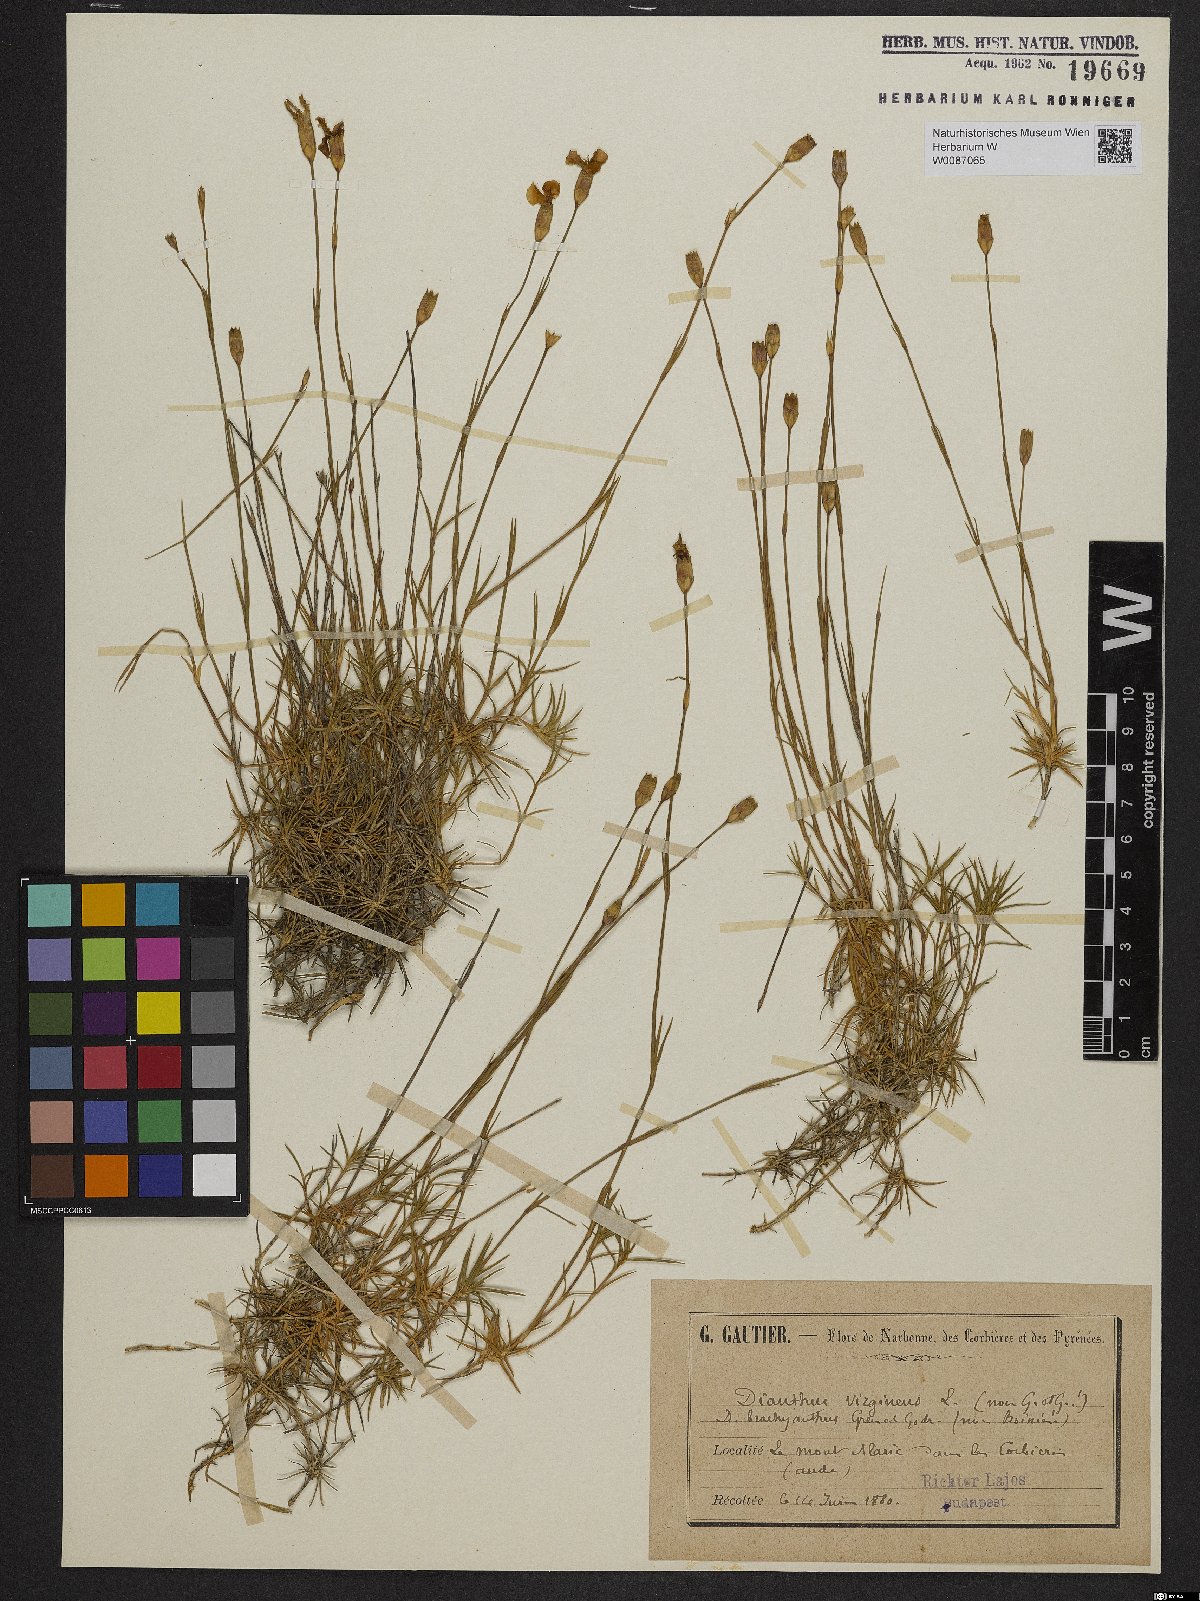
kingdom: Plantae
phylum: Tracheophyta
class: Magnoliopsida
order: Caryophyllales
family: Caryophyllaceae
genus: Dianthus
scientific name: Dianthus virgineus
